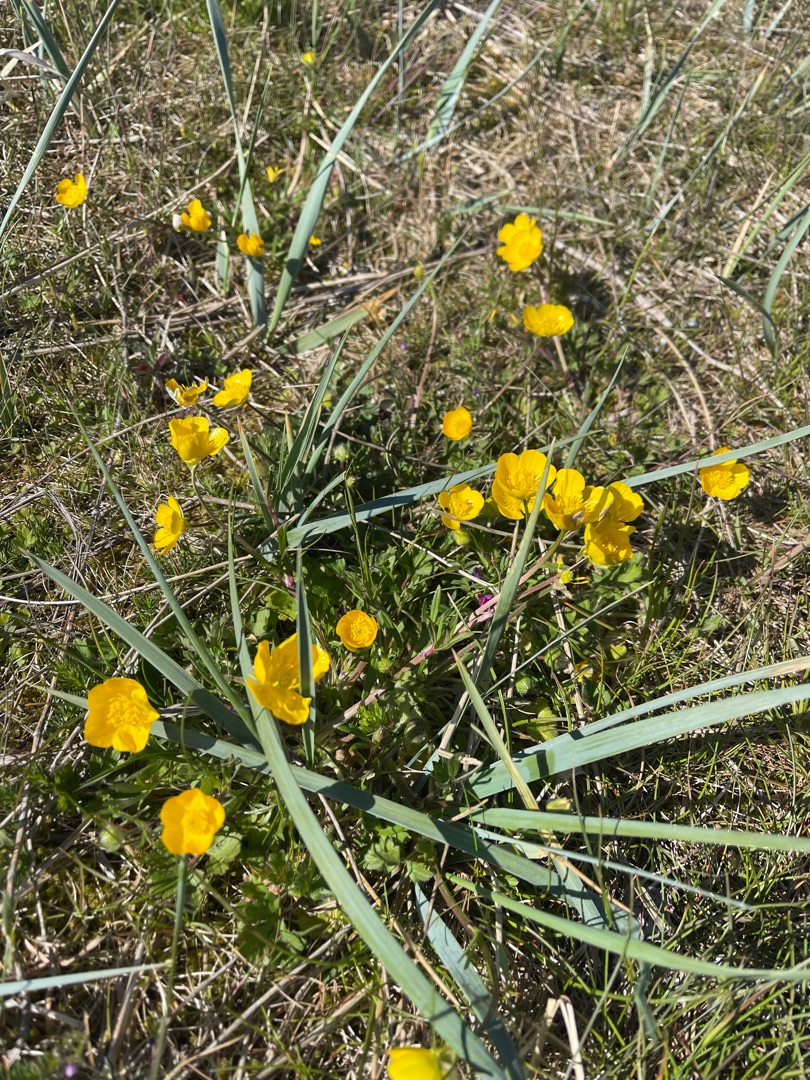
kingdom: Plantae
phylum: Tracheophyta
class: Magnoliopsida
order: Ranunculales
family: Ranunculaceae
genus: Ranunculus
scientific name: Ranunculus bulbosus
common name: Knold-ranunkel
